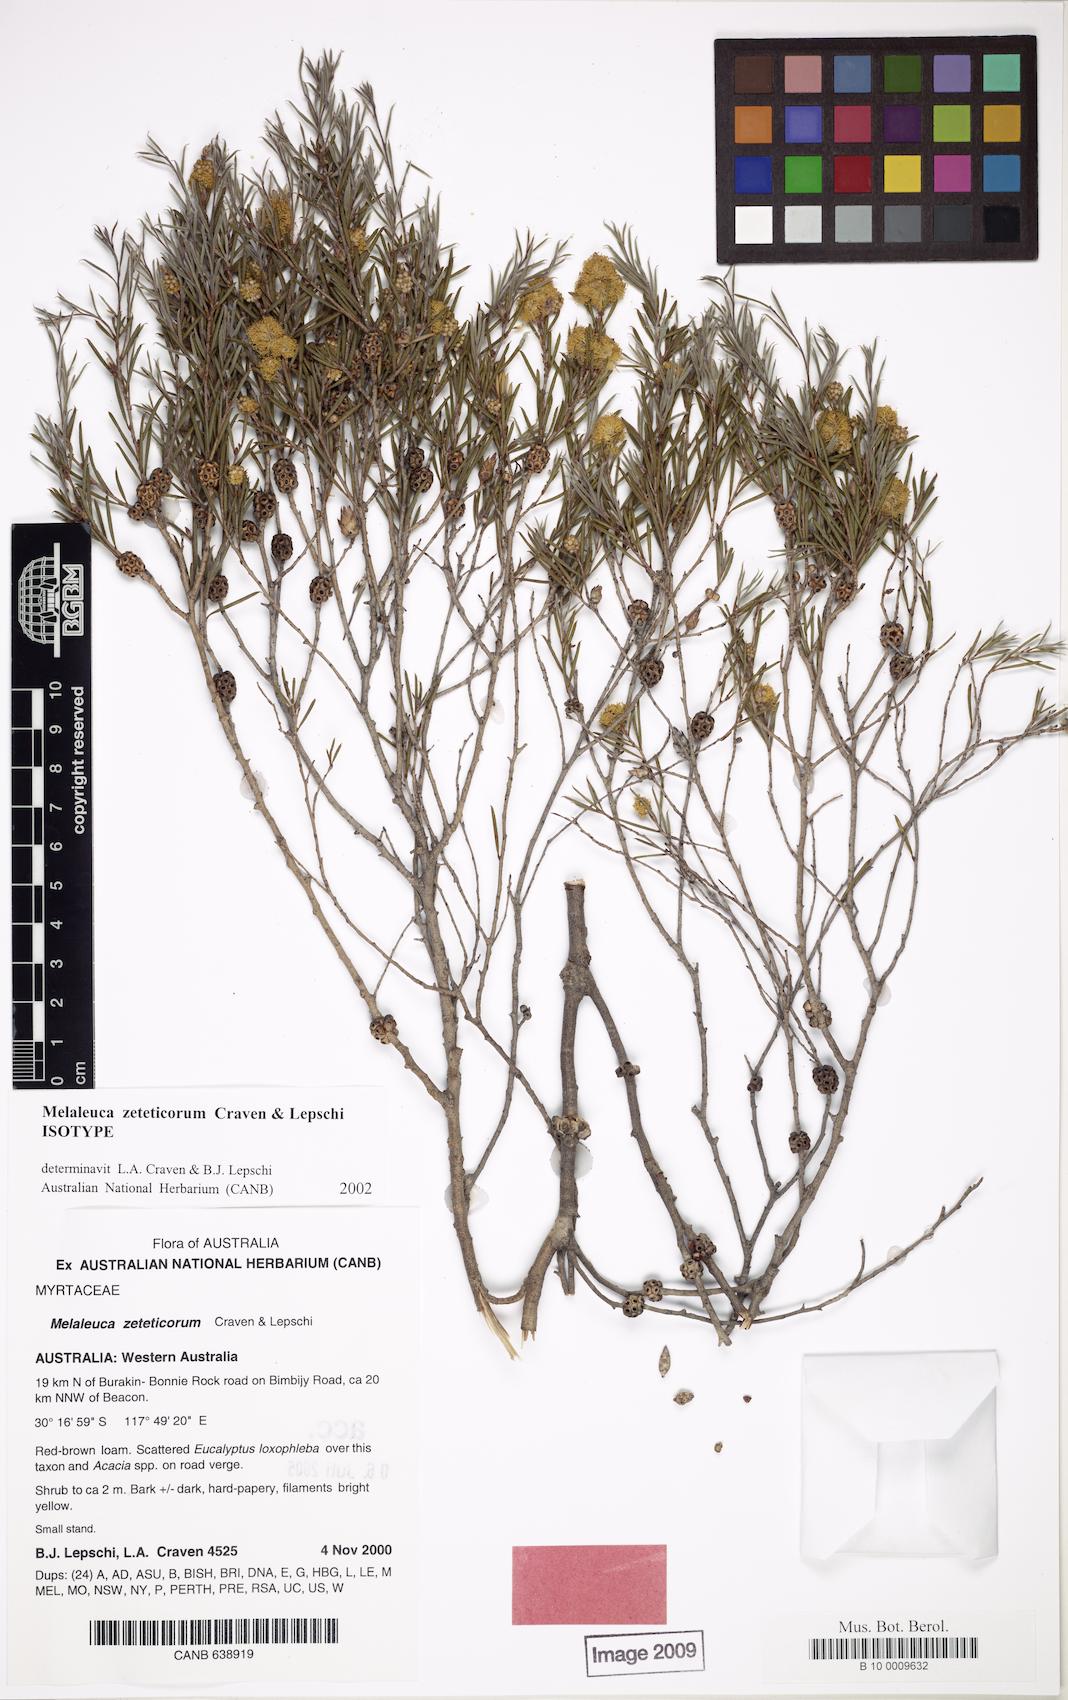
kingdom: Plantae
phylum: Tracheophyta
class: Magnoliopsida
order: Myrtales
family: Myrtaceae
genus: Melaleuca
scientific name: Melaleuca zeteticorum
